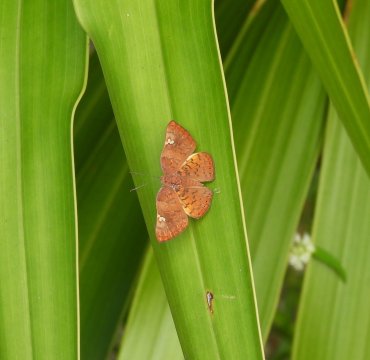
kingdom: Animalia
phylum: Arthropoda
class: Insecta
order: Lepidoptera
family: Lycaenidae
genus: Emesis
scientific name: Emesis lucinda
